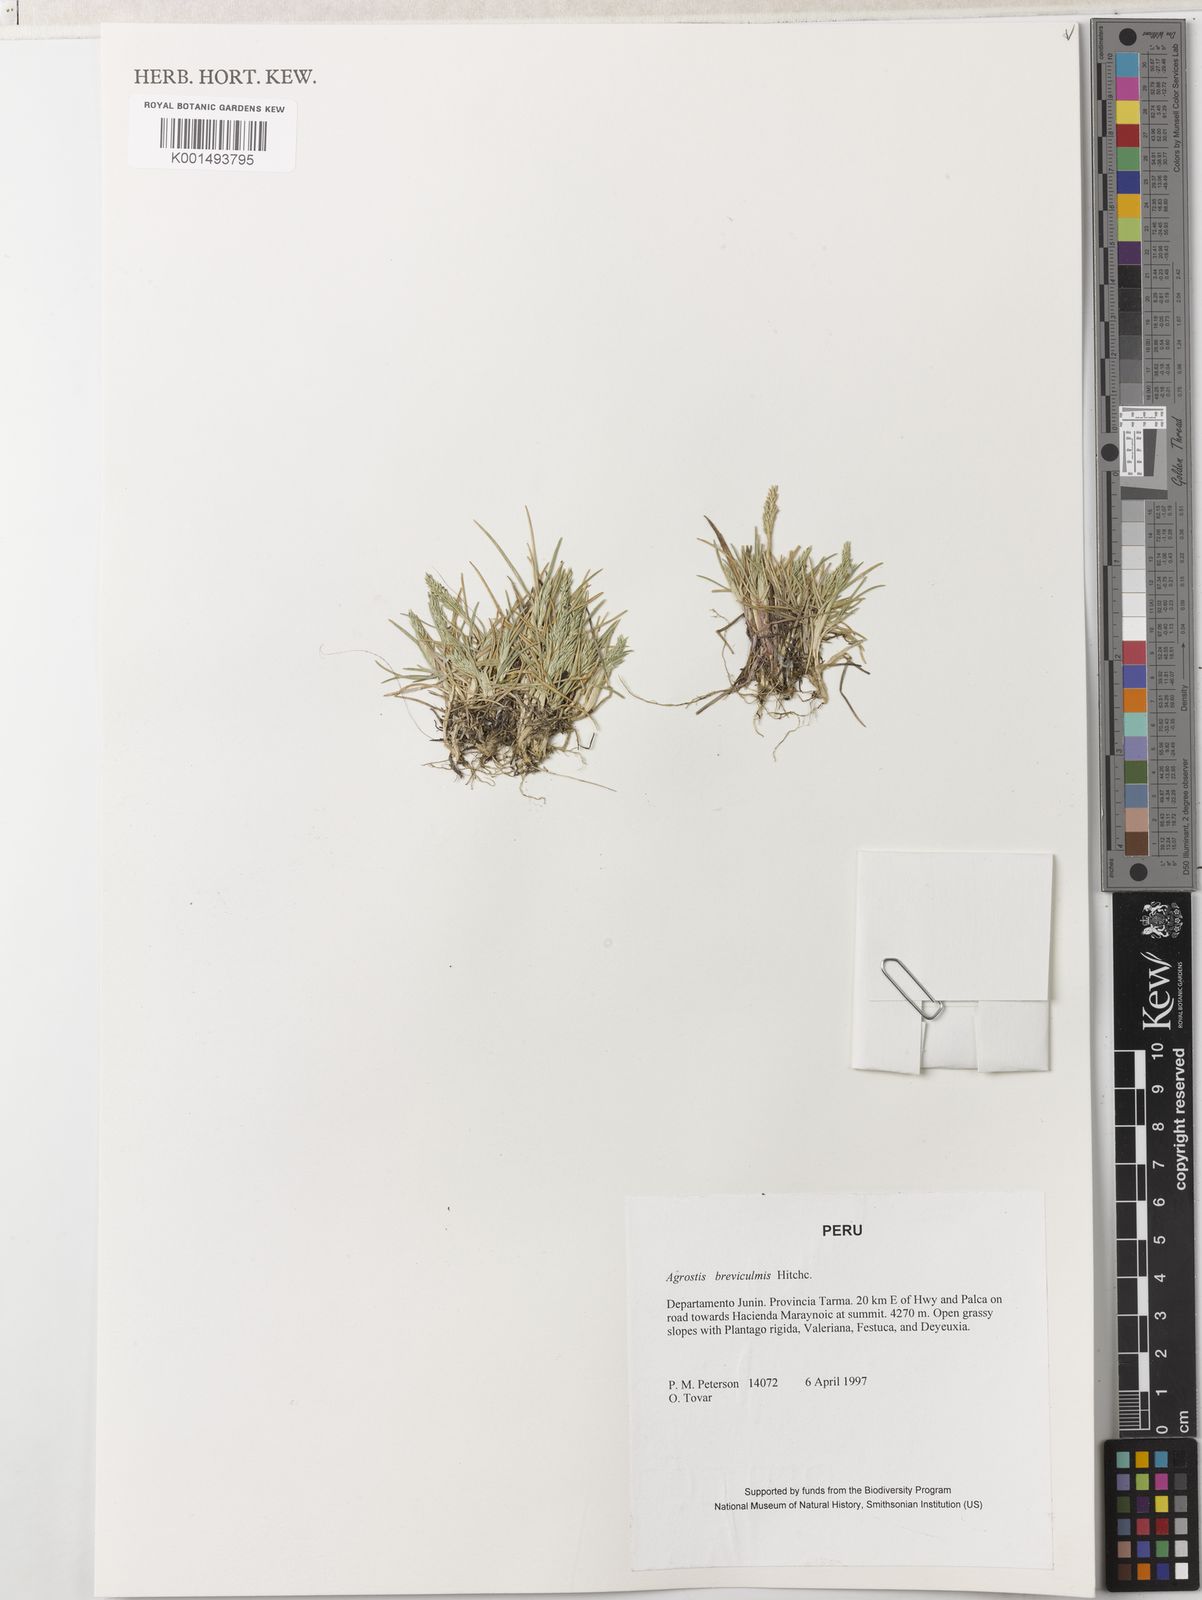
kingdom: Plantae
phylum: Tracheophyta
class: Liliopsida
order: Poales
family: Poaceae
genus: Agrostis
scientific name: Agrostis breviculmis
